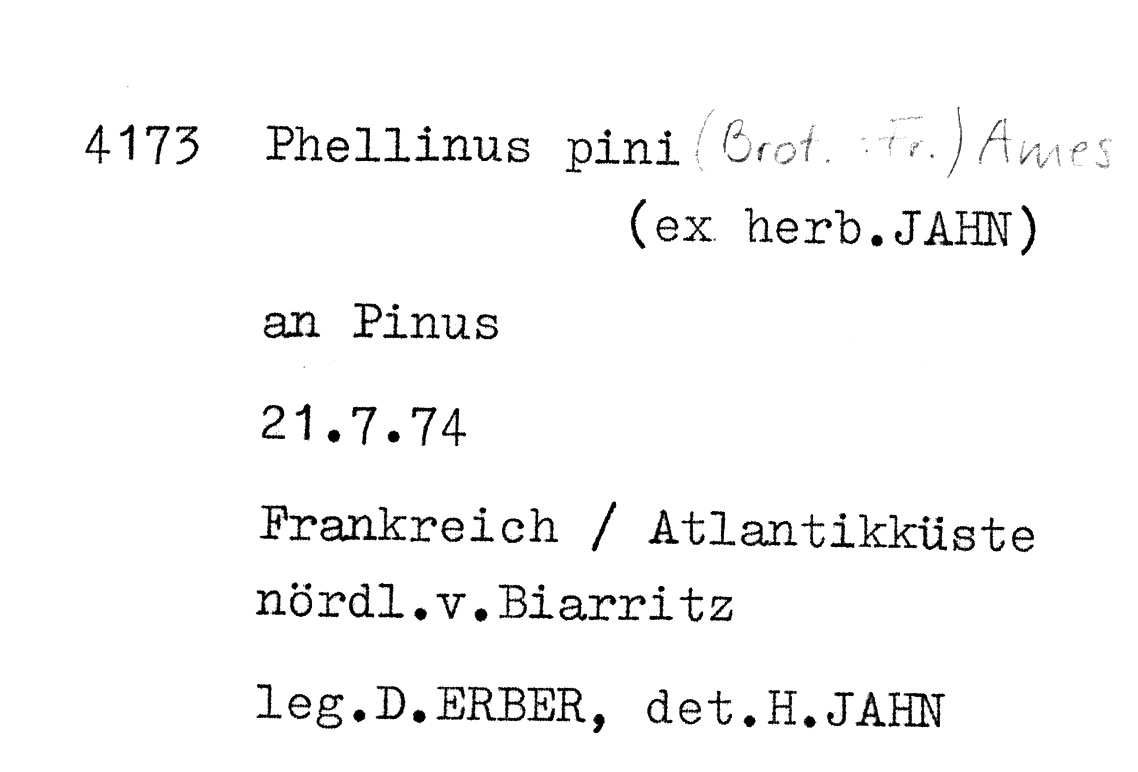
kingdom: Plantae
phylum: Tracheophyta
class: Pinopsida
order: Pinales
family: Pinaceae
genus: Pinus
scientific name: Pinus
